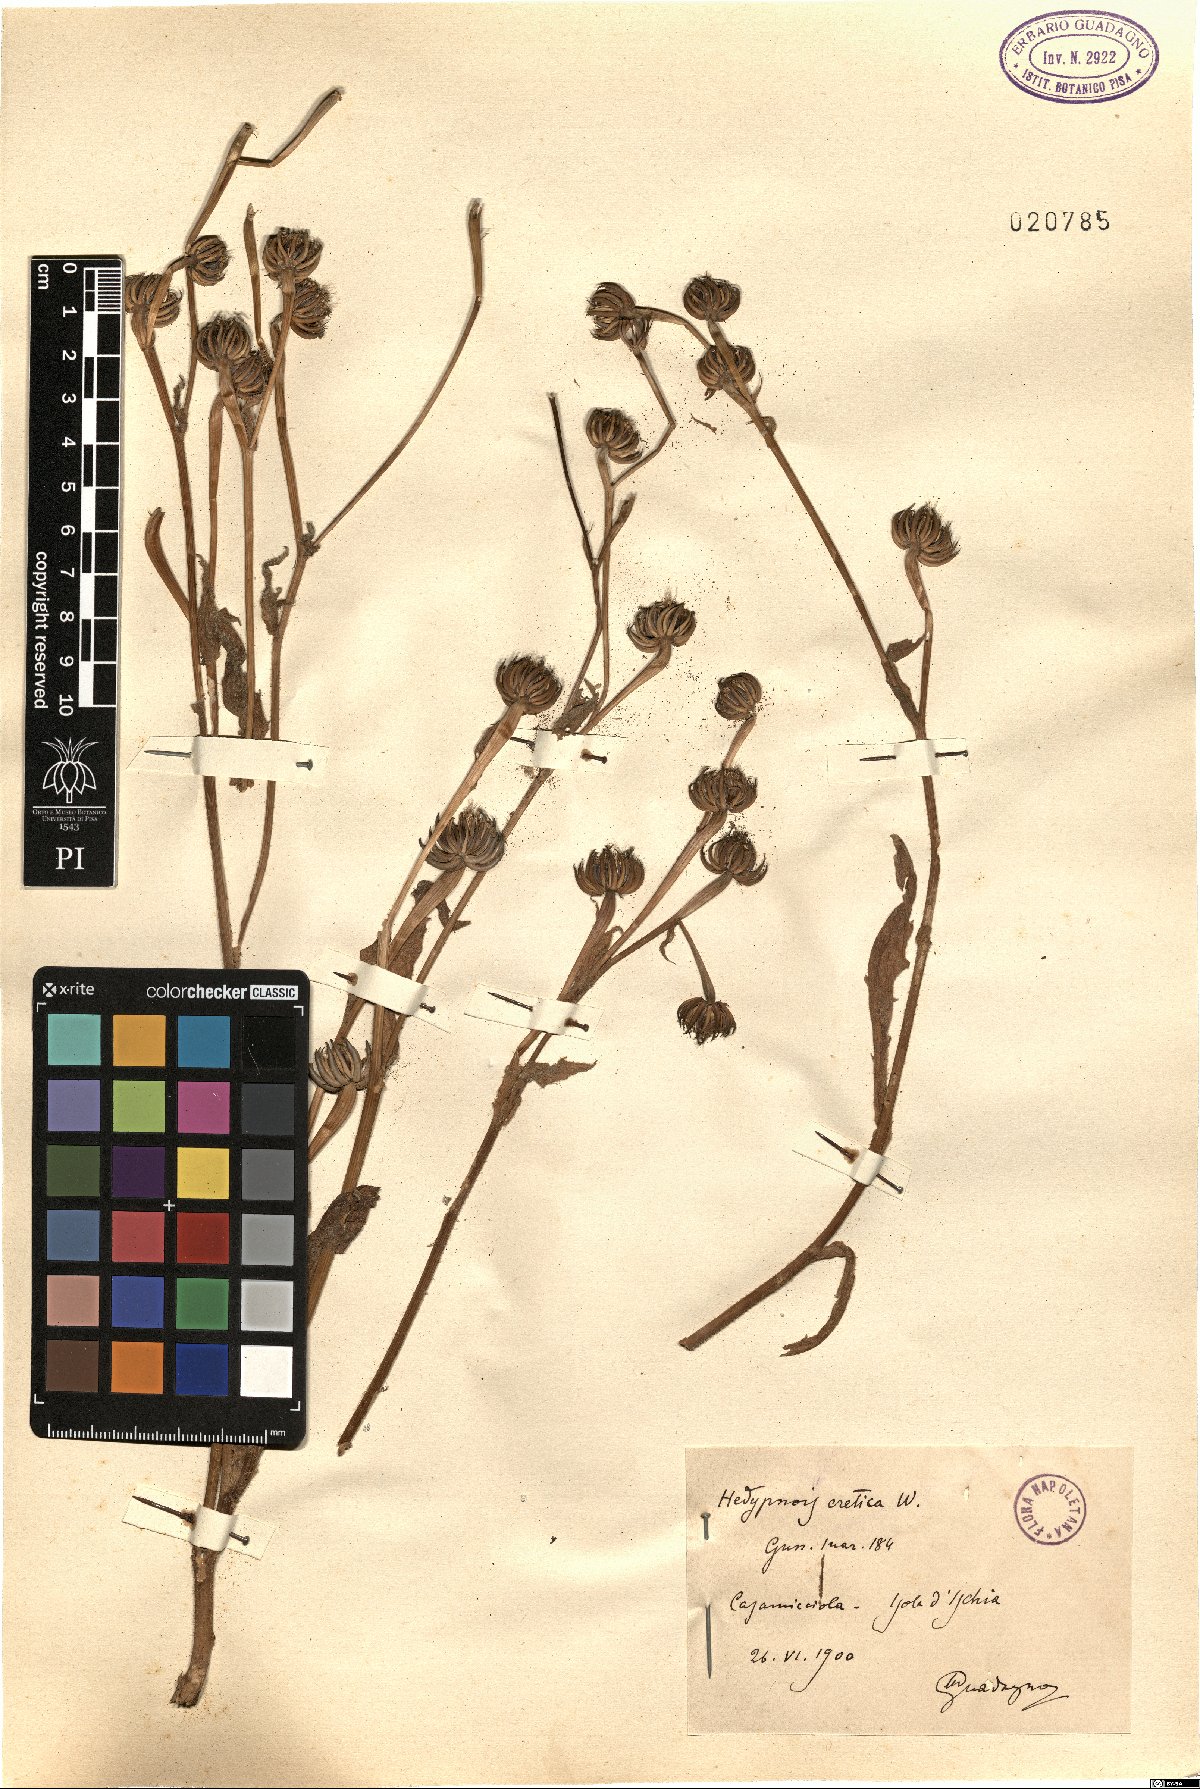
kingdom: Plantae
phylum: Tracheophyta
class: Magnoliopsida
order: Asterales
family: Asteraceae
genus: Hedypnois
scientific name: Hedypnois rhagadioloides
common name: Cretan weed
